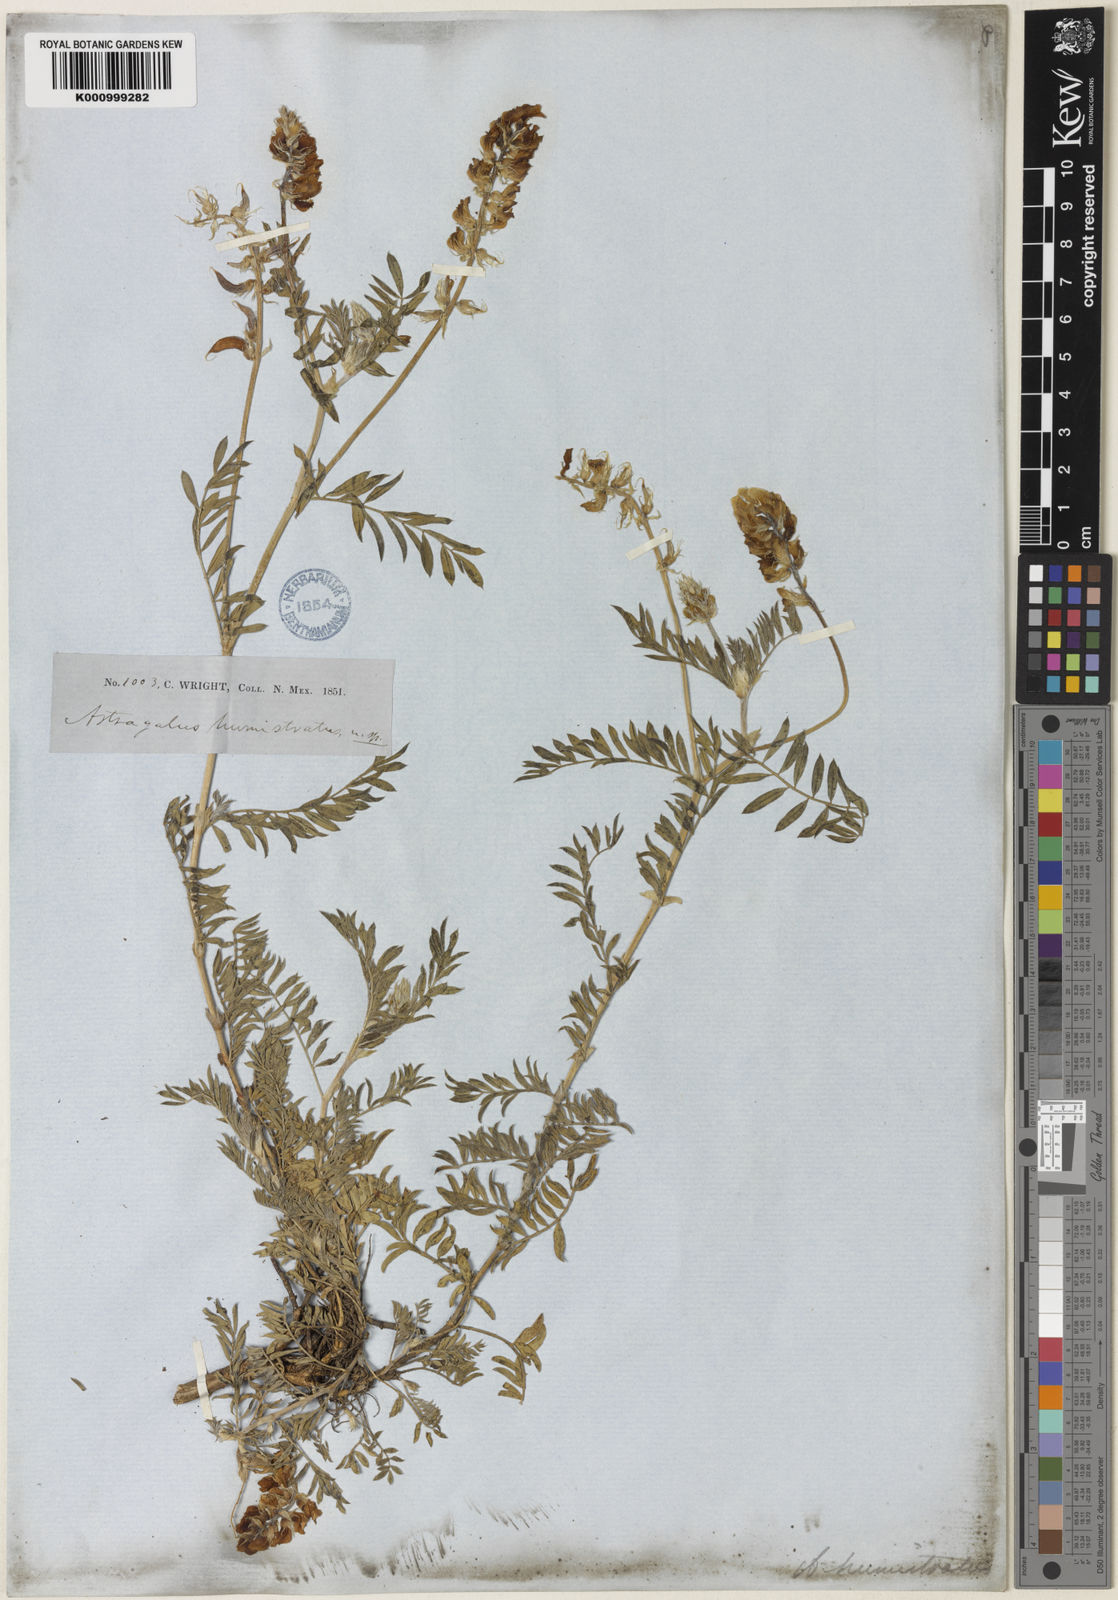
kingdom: Plantae
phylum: Tracheophyta
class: Magnoliopsida
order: Fabales
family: Fabaceae
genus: Astragalus
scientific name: Astragalus humistratus
